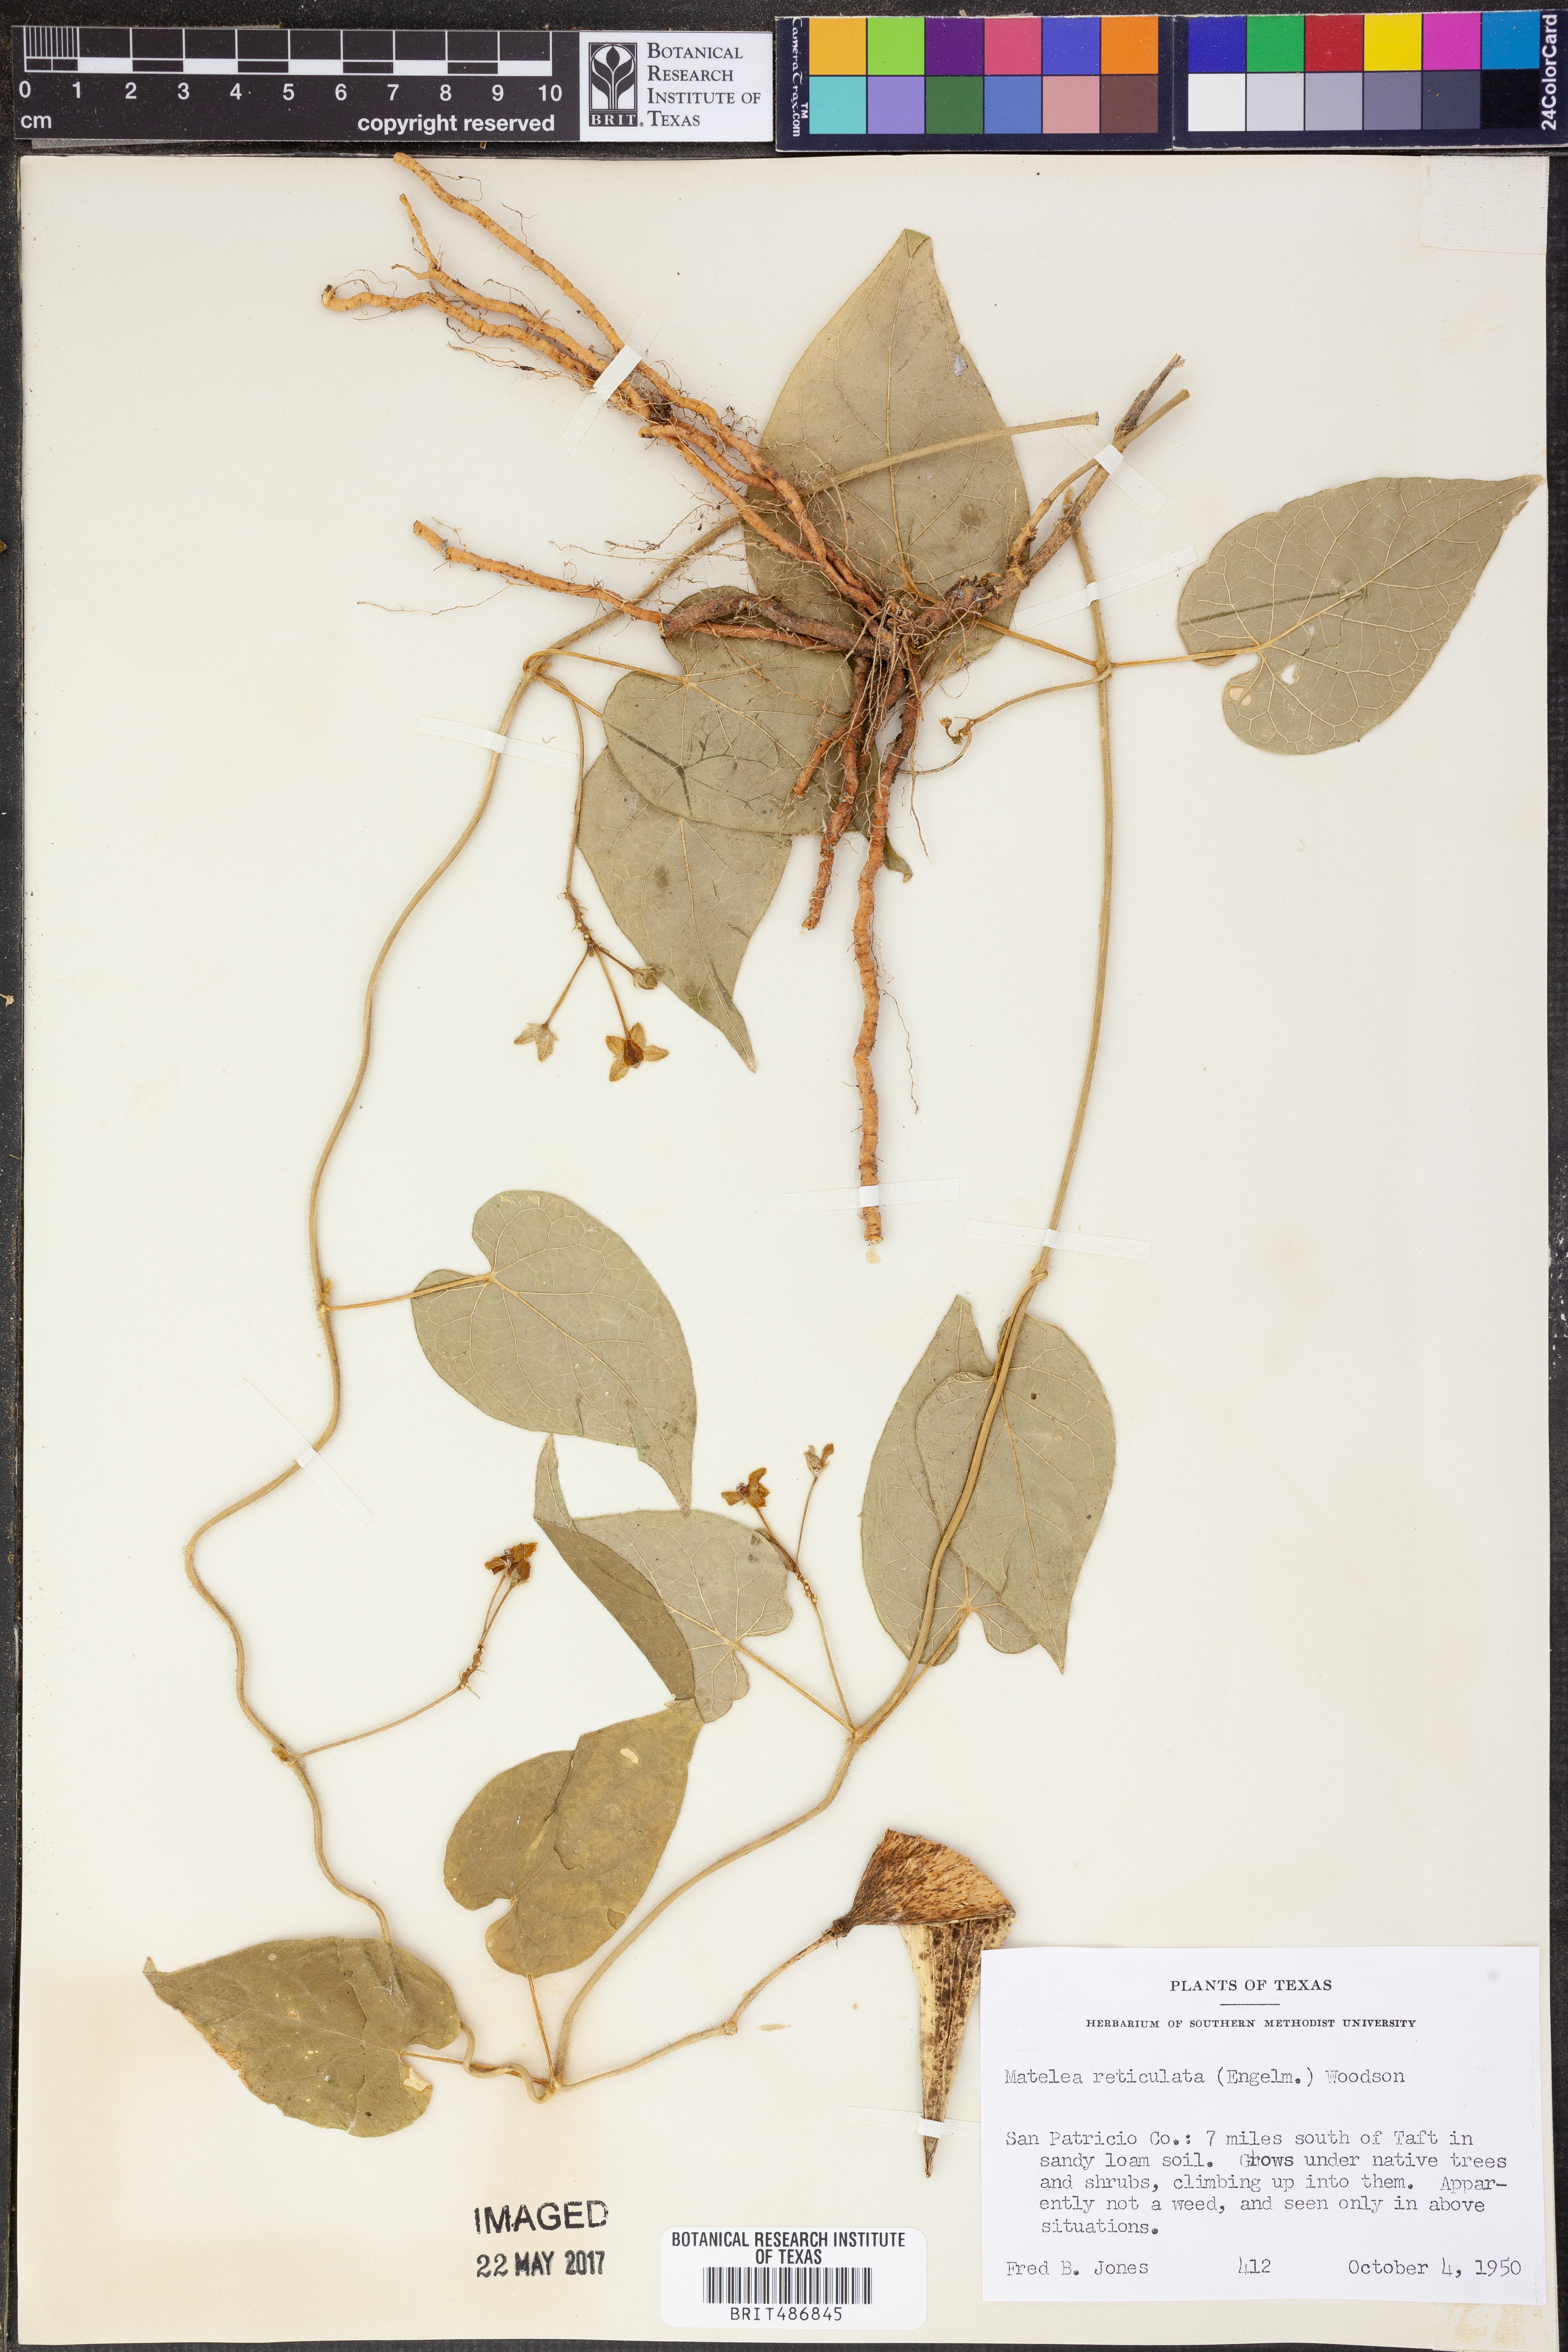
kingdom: Plantae
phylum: Tracheophyta
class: Magnoliopsida
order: Gentianales
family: Apocynaceae
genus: Dictyanthus
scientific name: Dictyanthus reticulatus
